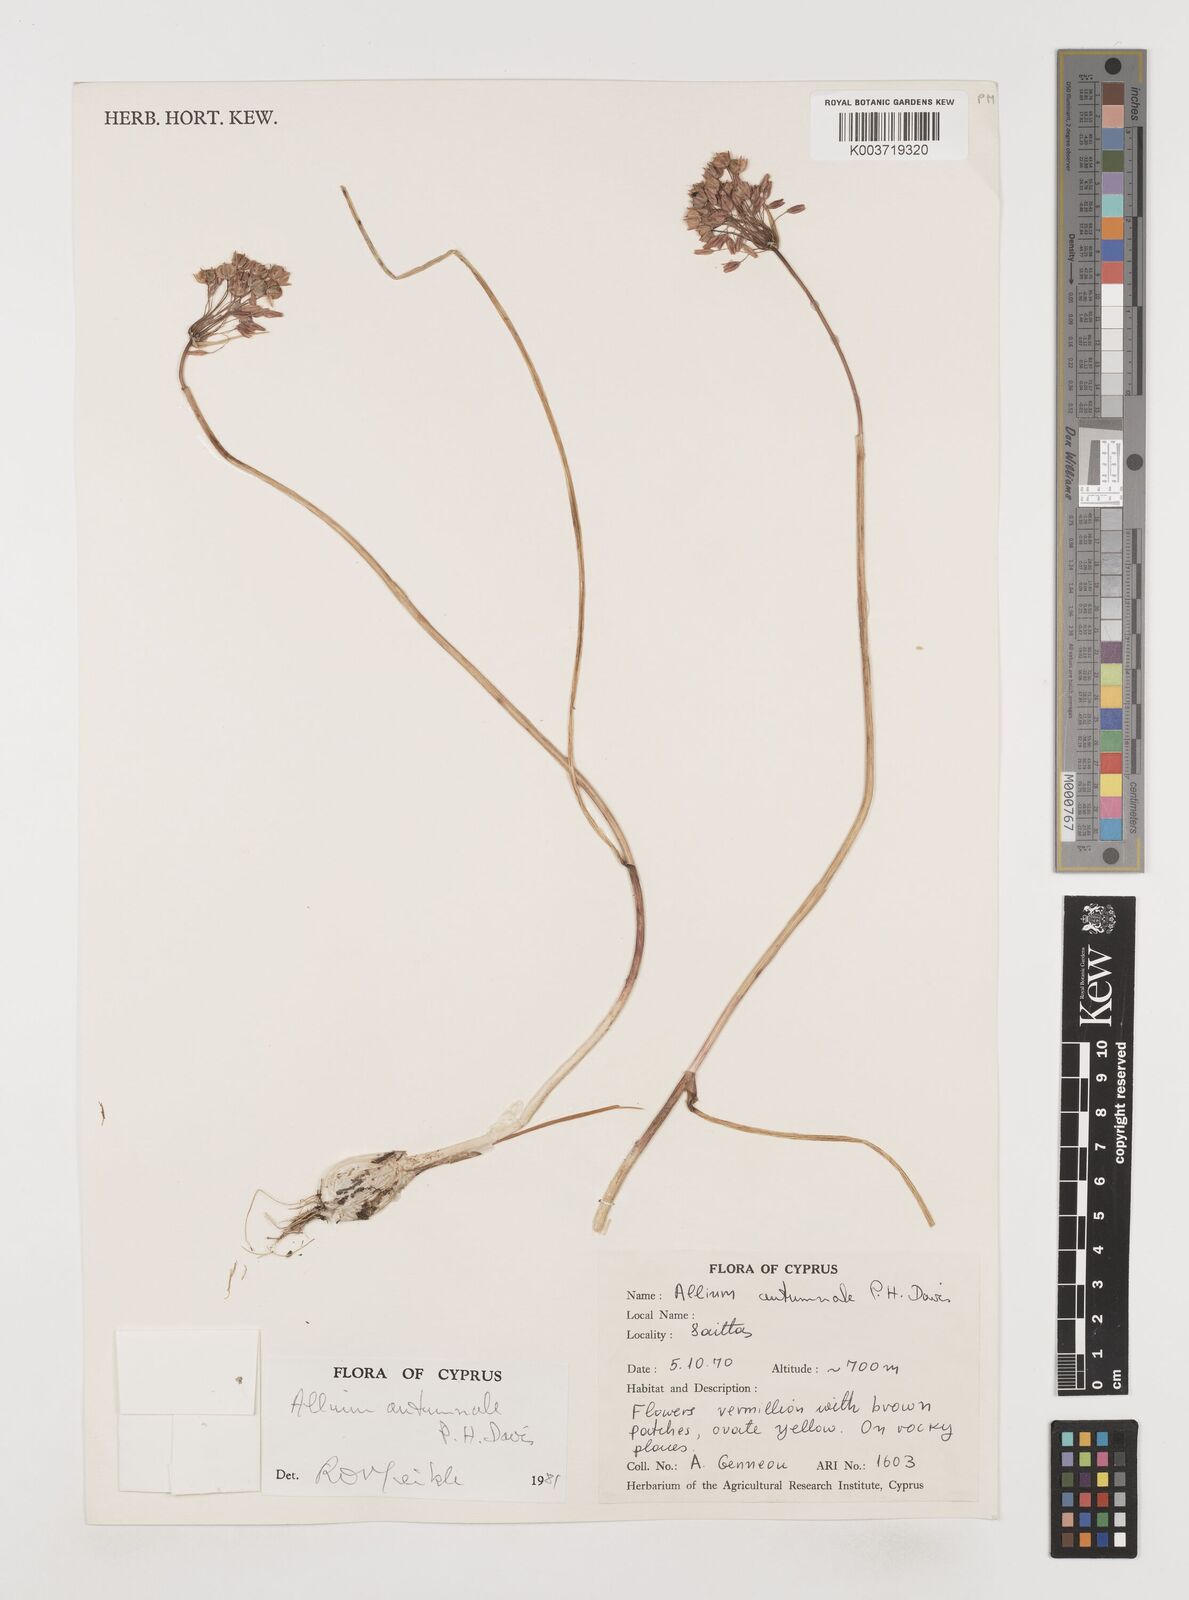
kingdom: Plantae
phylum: Tracheophyta
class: Liliopsida
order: Asparagales
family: Amaryllidaceae
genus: Allium
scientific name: Allium autumnale
